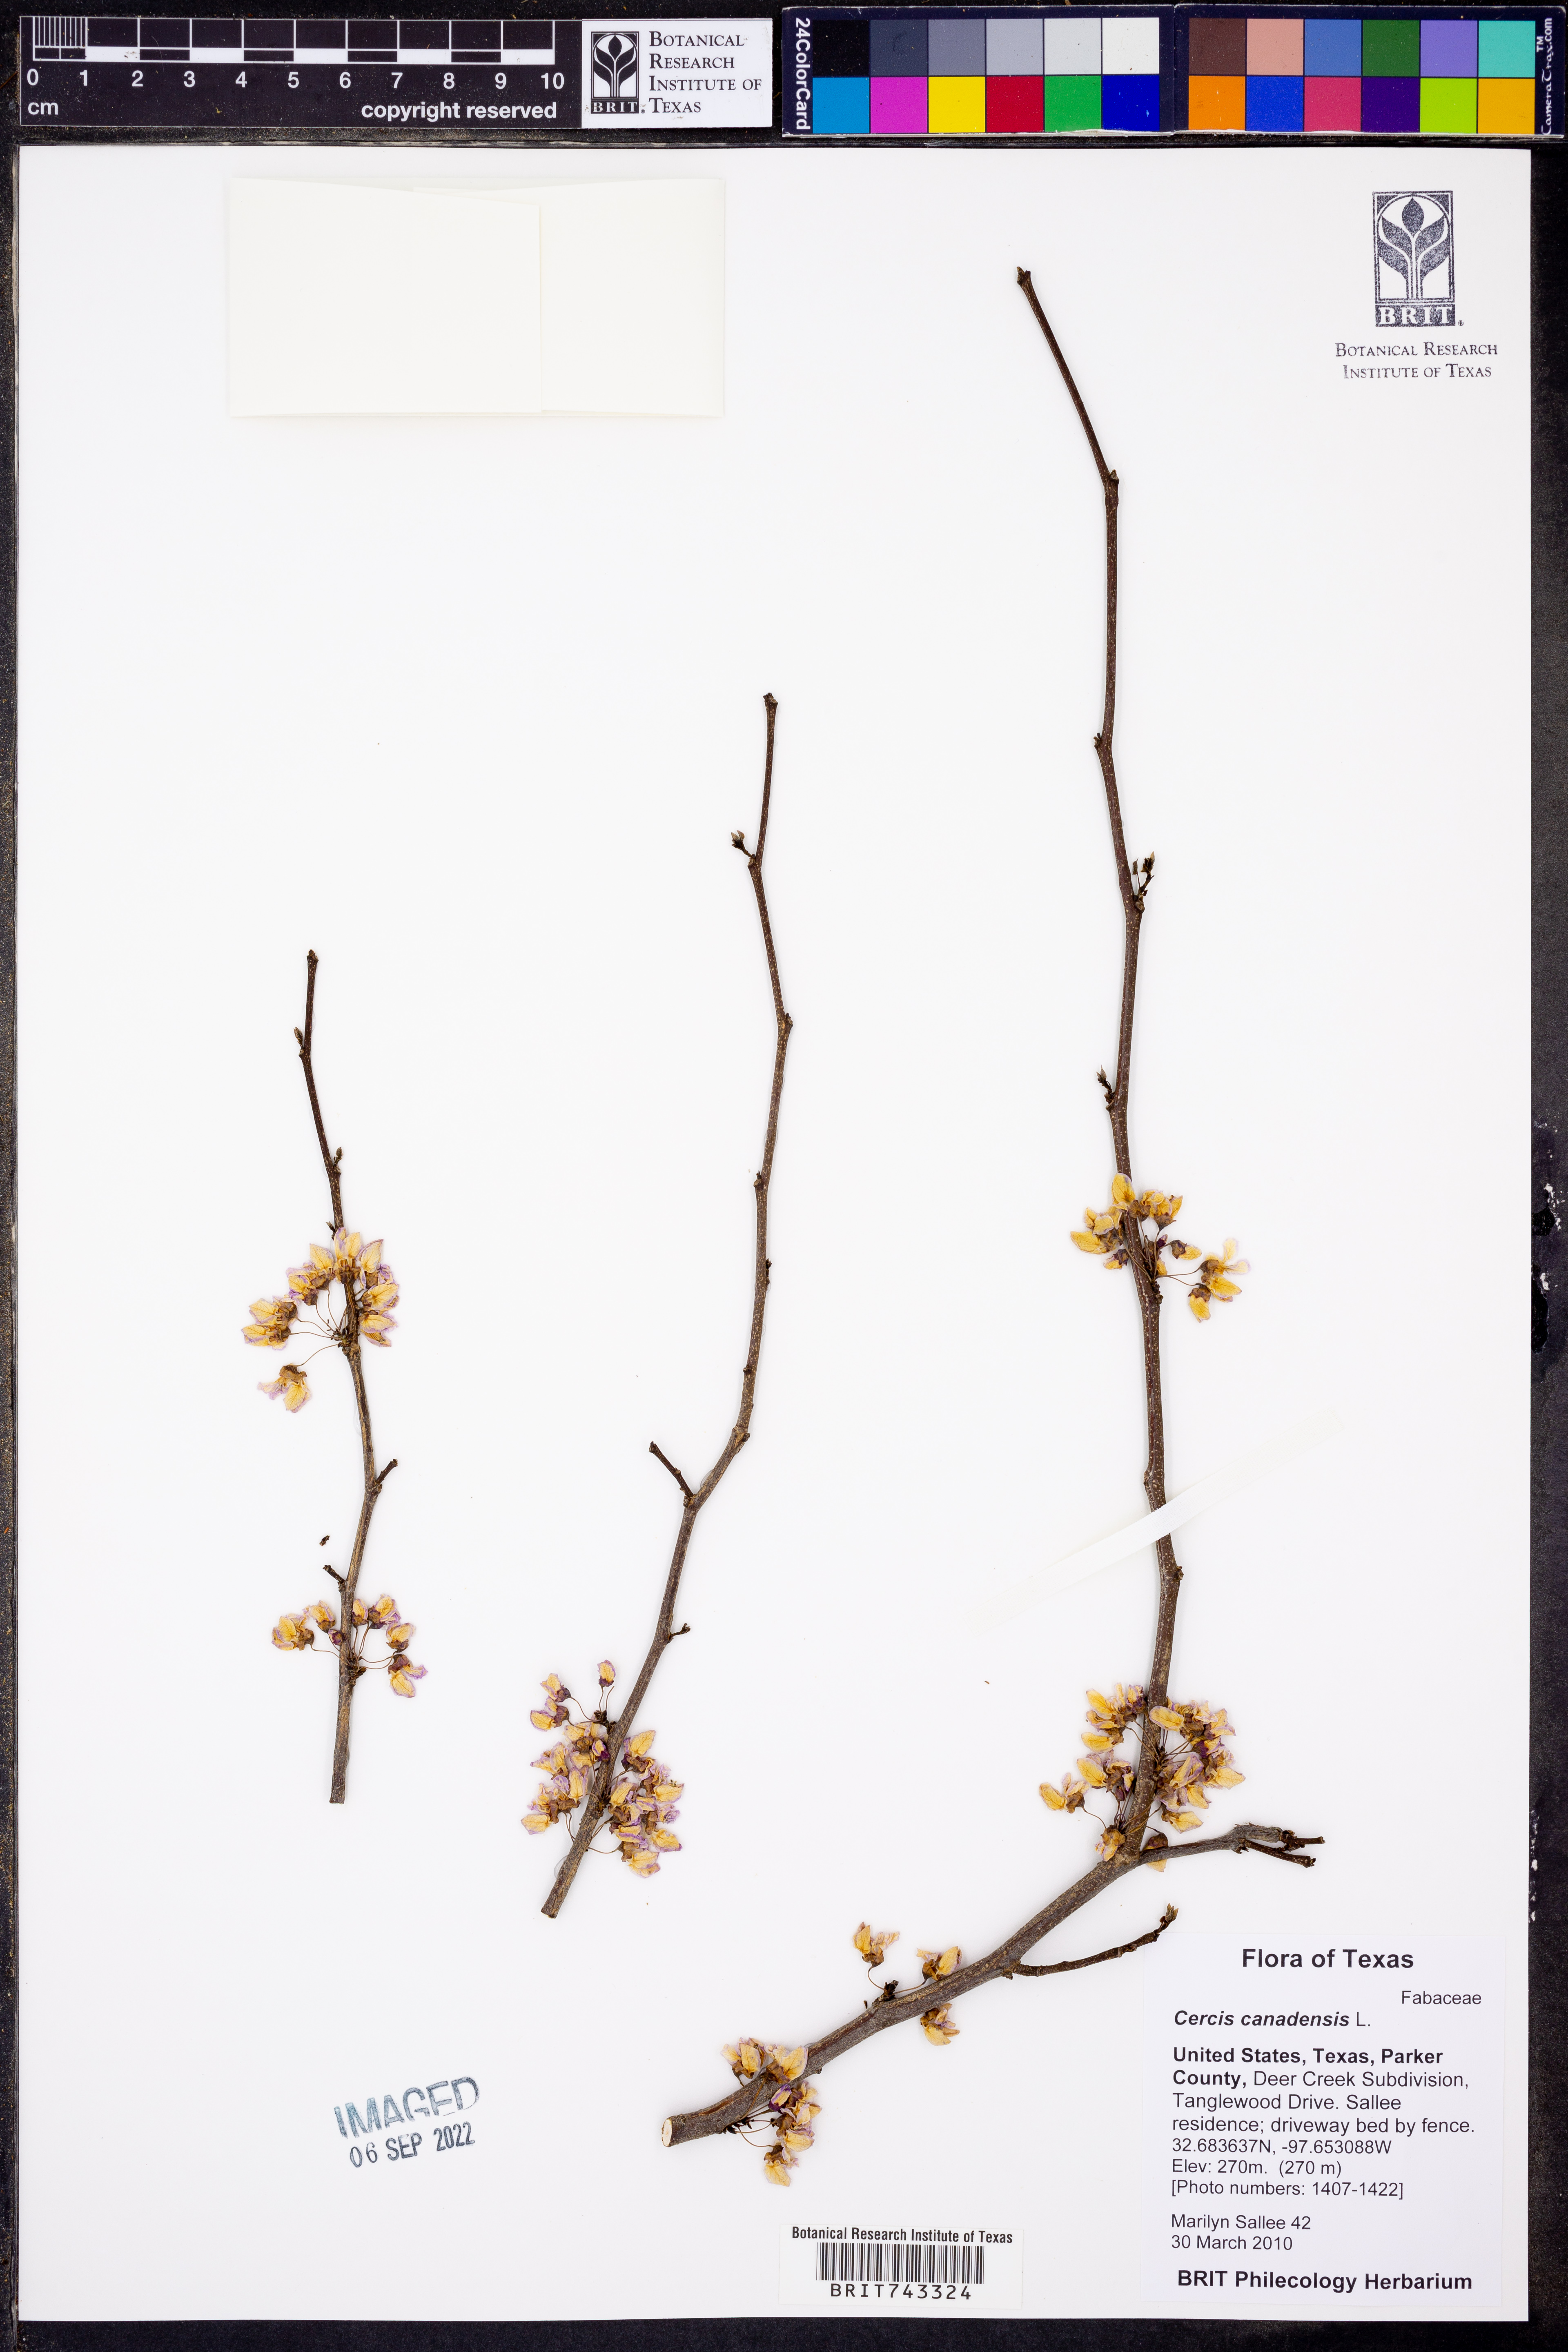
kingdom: Plantae
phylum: Tracheophyta
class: Magnoliopsida
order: Fabales
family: Fabaceae
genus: Cercis
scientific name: Cercis canadensis
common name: Eastern redbud
